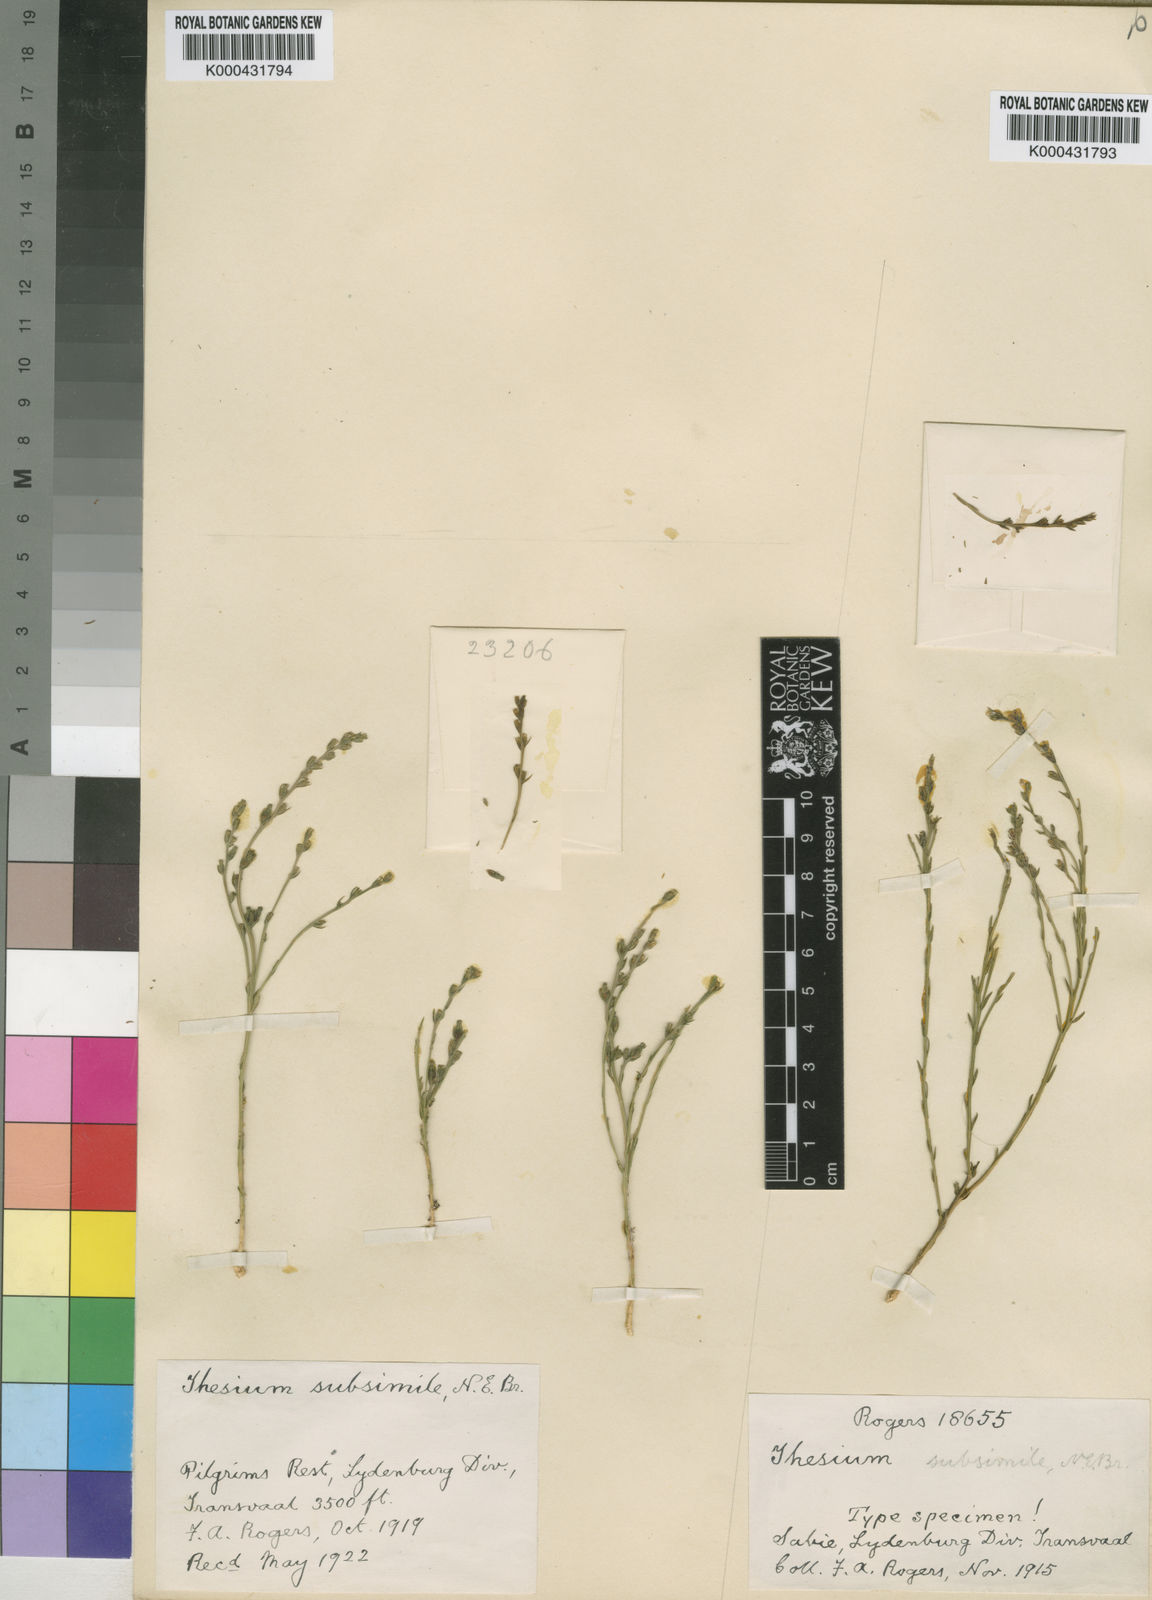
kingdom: Plantae
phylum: Tracheophyta
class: Magnoliopsida
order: Santalales
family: Thesiaceae
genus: Thesium
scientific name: Thesium subsimile
